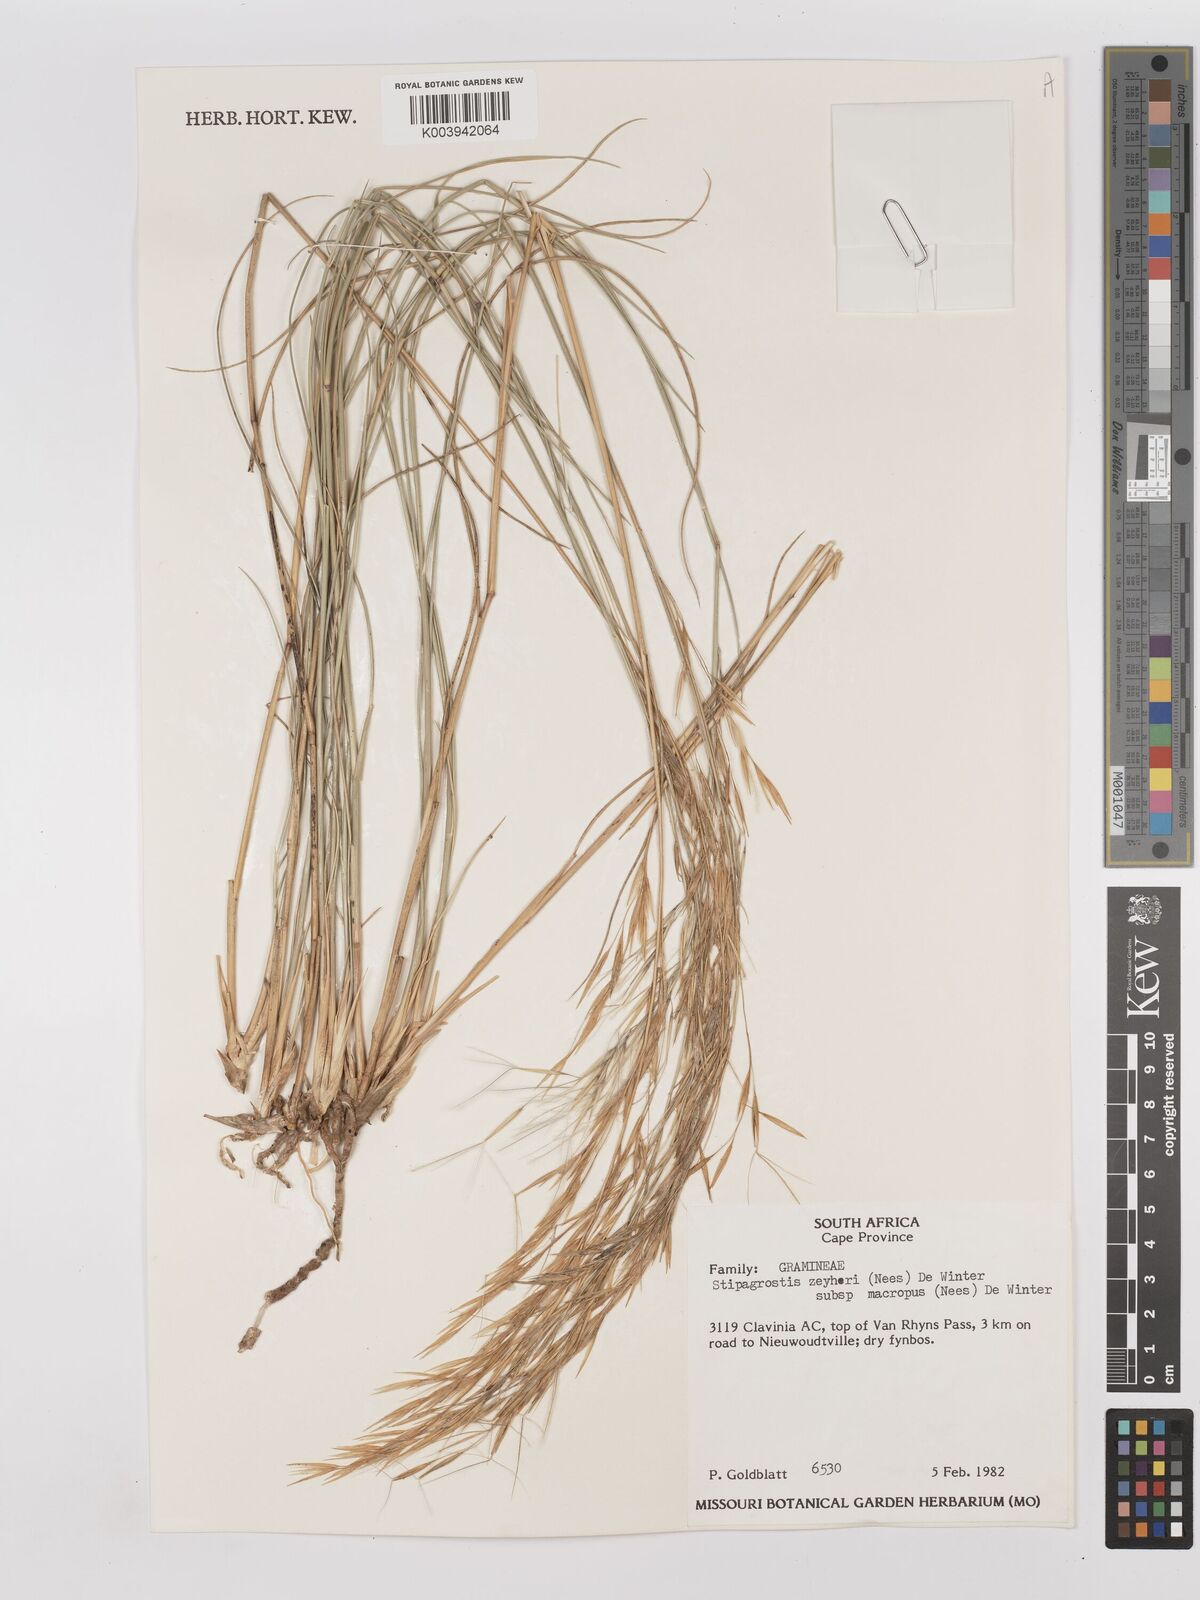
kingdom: Plantae
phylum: Tracheophyta
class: Liliopsida
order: Poales
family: Poaceae
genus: Stipagrostis
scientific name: Stipagrostis zeyheri
